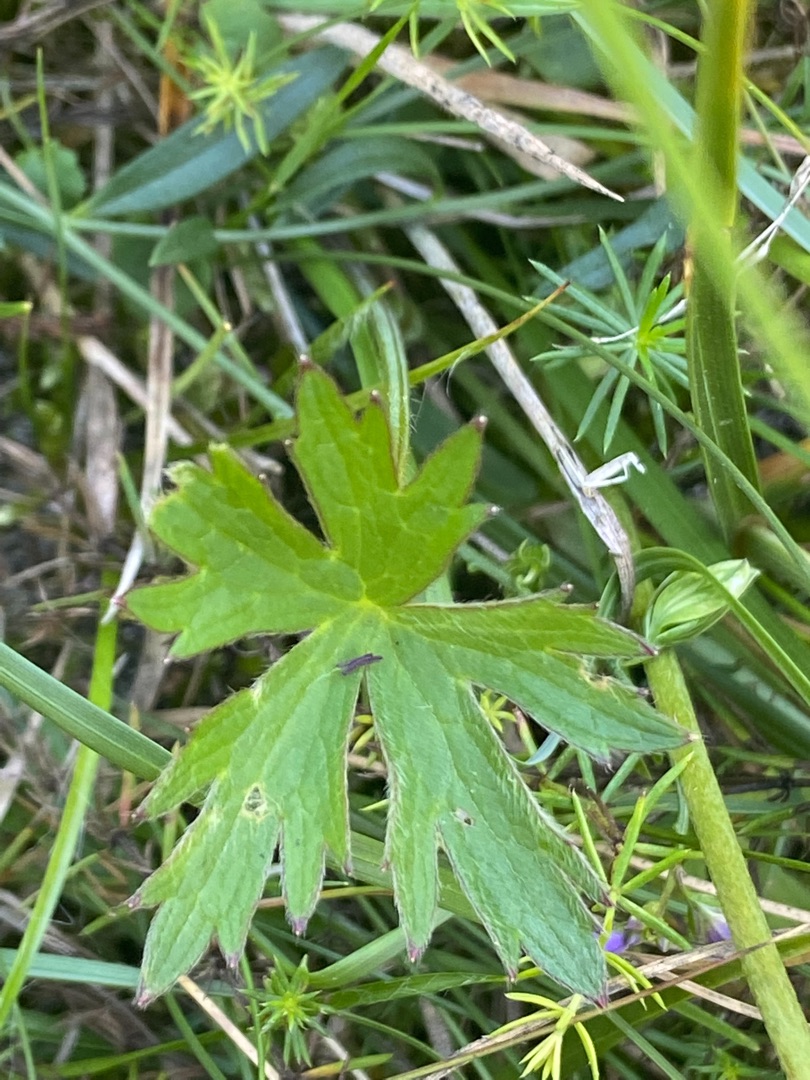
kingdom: Plantae
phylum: Tracheophyta
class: Magnoliopsida
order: Ranunculales
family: Ranunculaceae
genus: Ranunculus
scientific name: Ranunculus acris
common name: Bidende ranunkel
